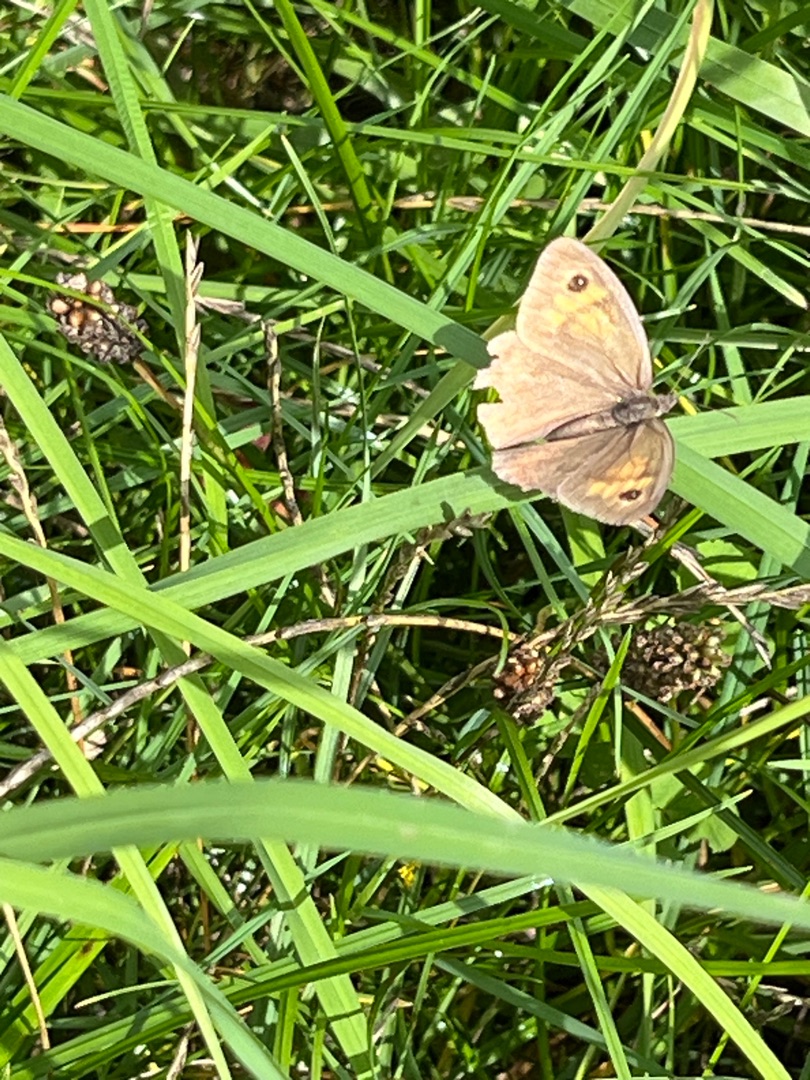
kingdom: Animalia
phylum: Arthropoda
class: Insecta
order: Lepidoptera
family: Nymphalidae
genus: Maniola
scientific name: Maniola jurtina
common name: Græsrandøje
